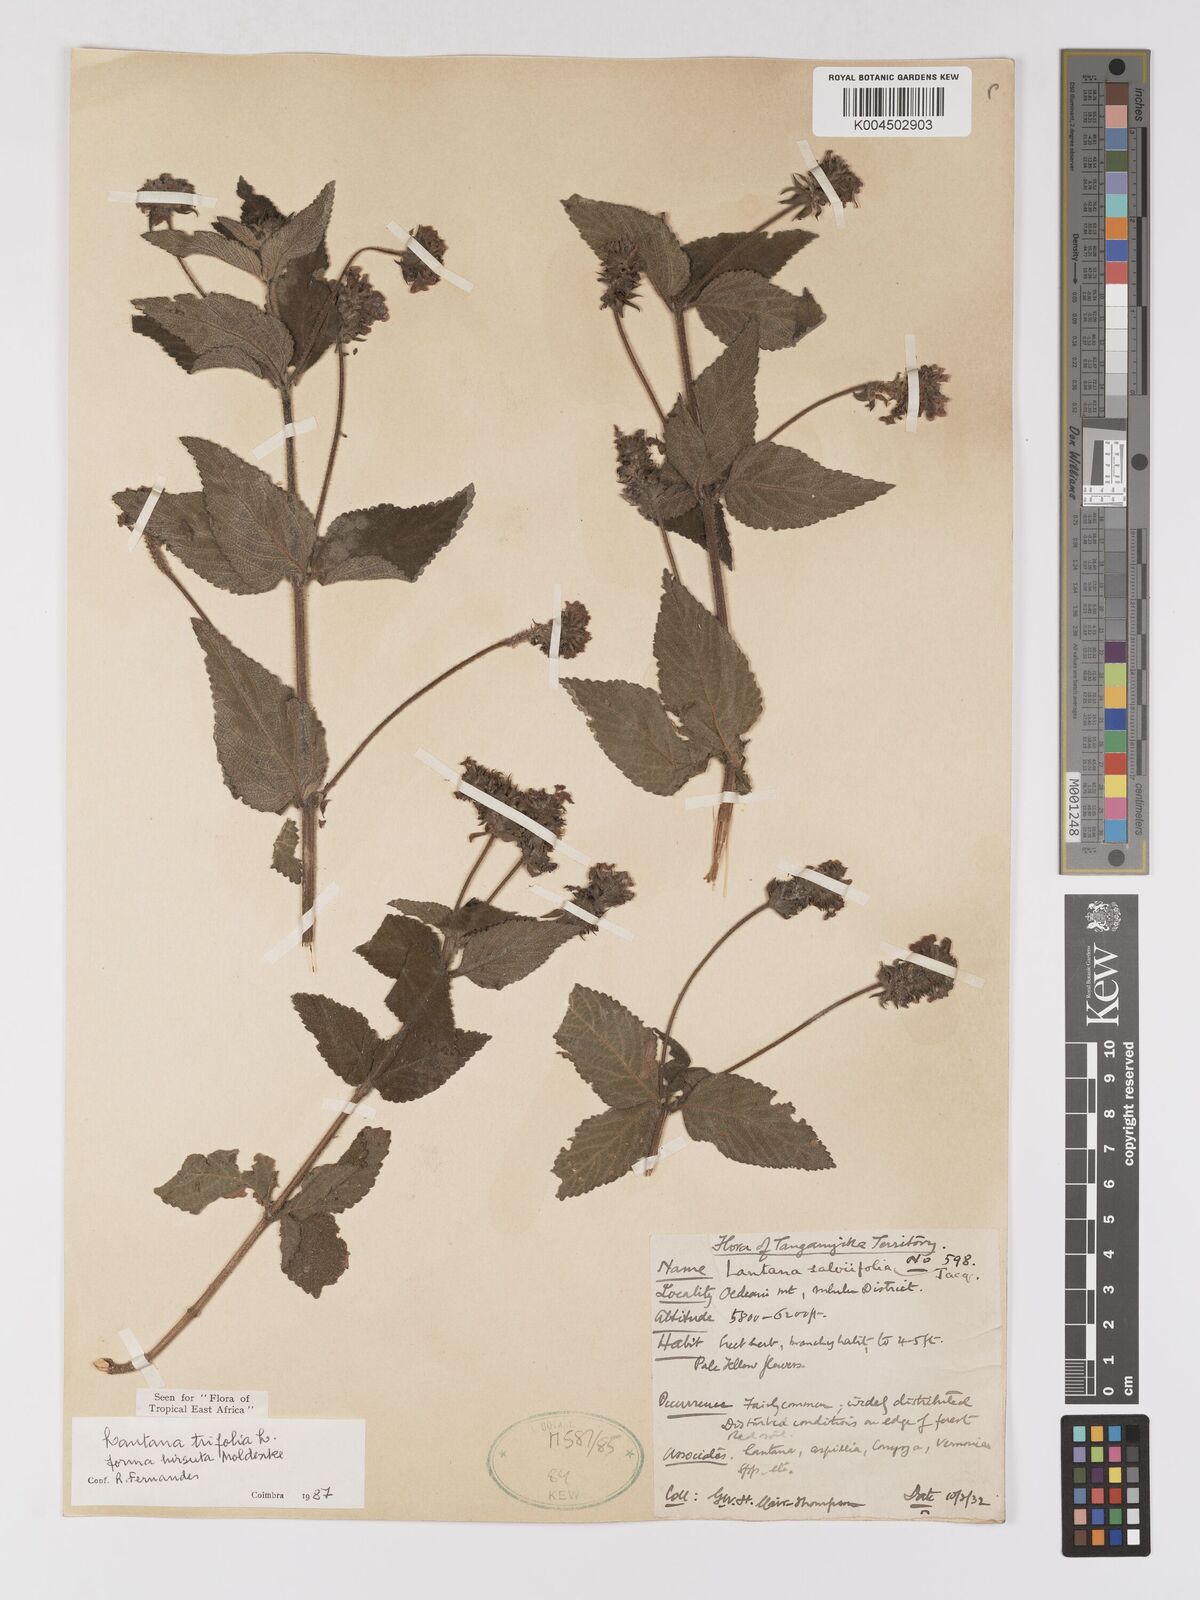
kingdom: Plantae
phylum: Tracheophyta
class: Magnoliopsida
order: Lamiales
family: Verbenaceae
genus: Lantana
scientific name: Lantana trifolia
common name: Sweet-sage
